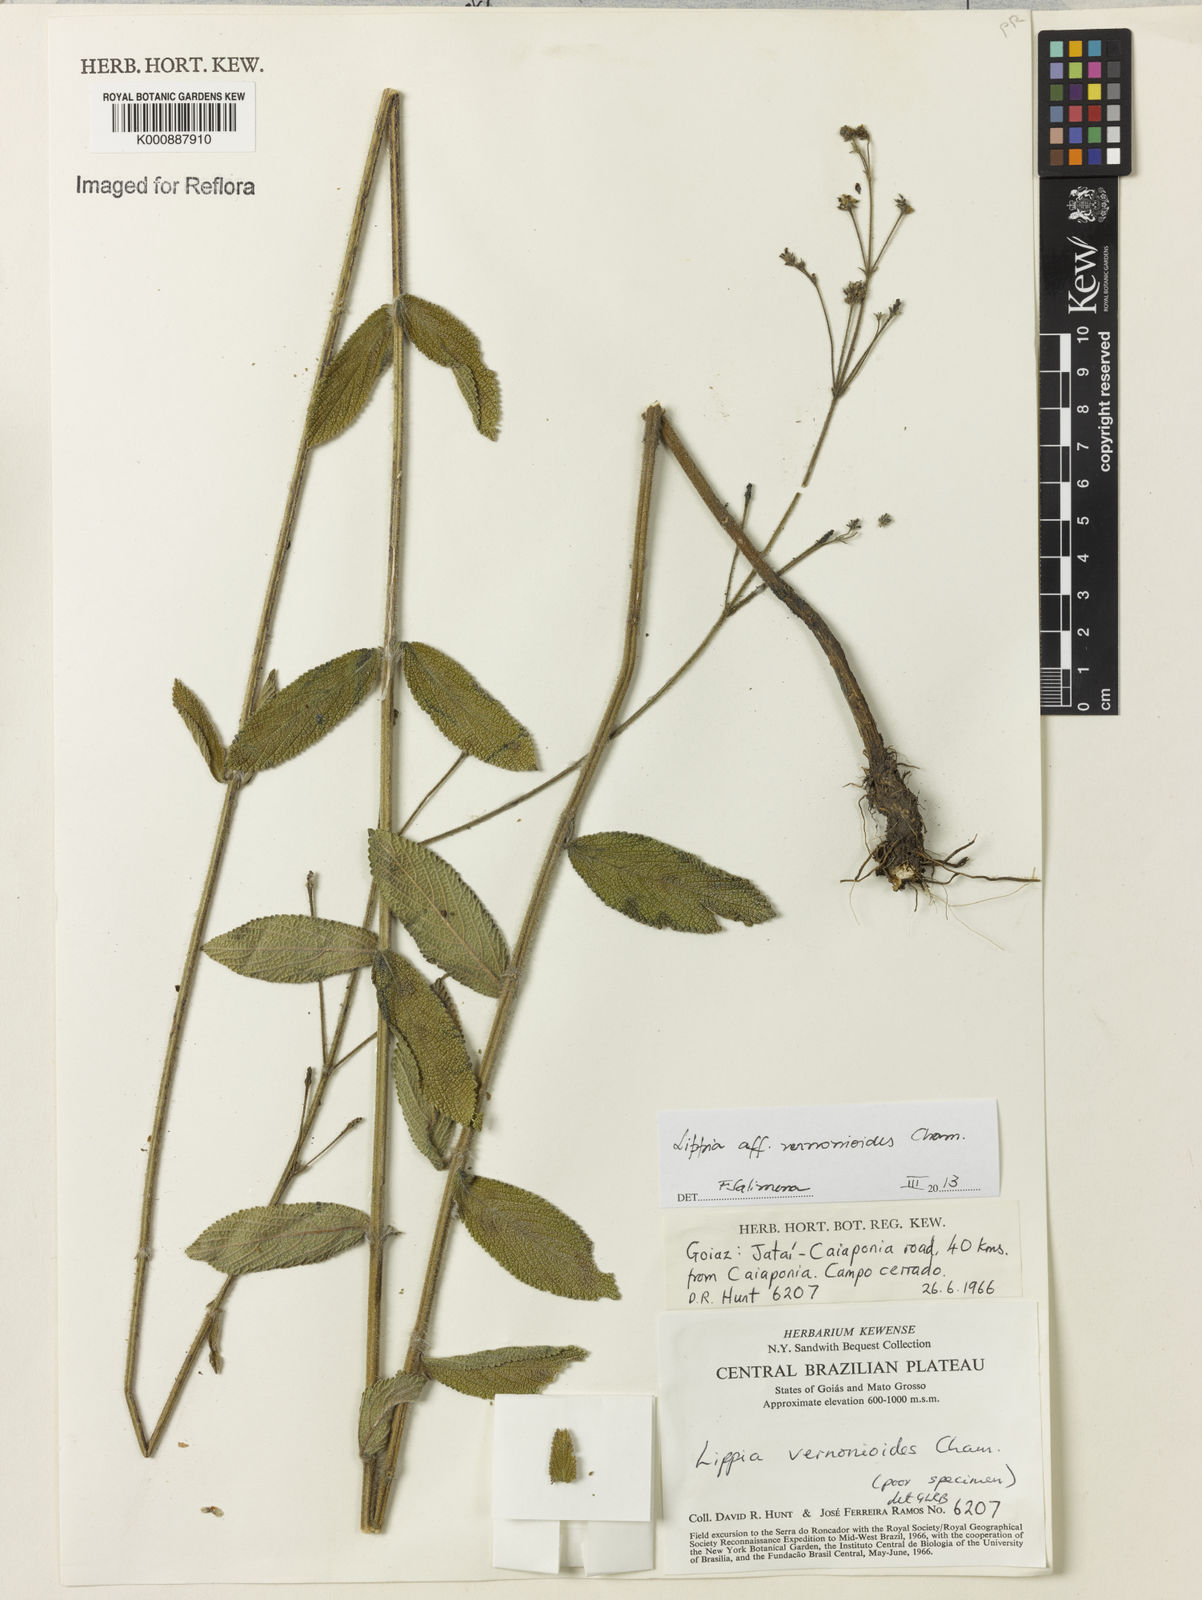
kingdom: Plantae
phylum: Tracheophyta
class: Magnoliopsida
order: Lamiales
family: Verbenaceae
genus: Lippia
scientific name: Lippia vernonioides
